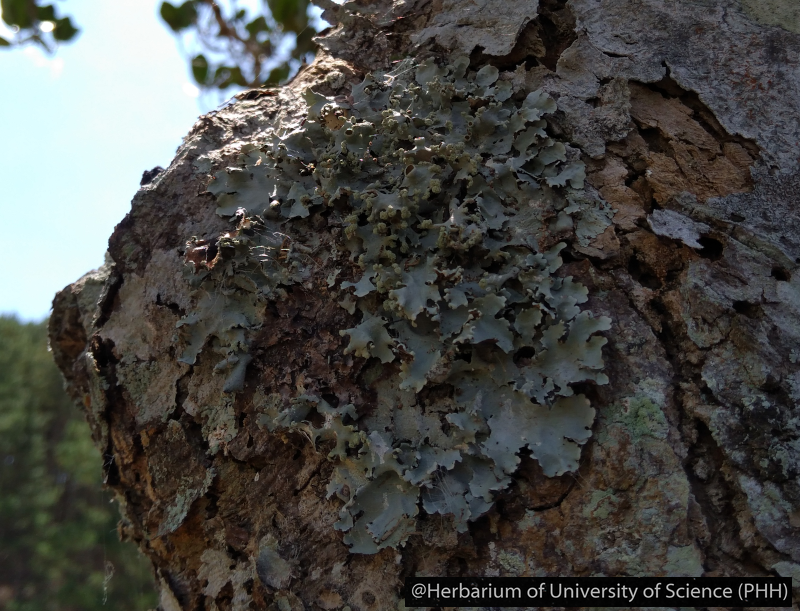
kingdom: Fungi
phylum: Ascomycota
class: Lecanoromycetes
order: Lecanorales
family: Parmeliaceae
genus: Parmotrema
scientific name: Parmotrema
